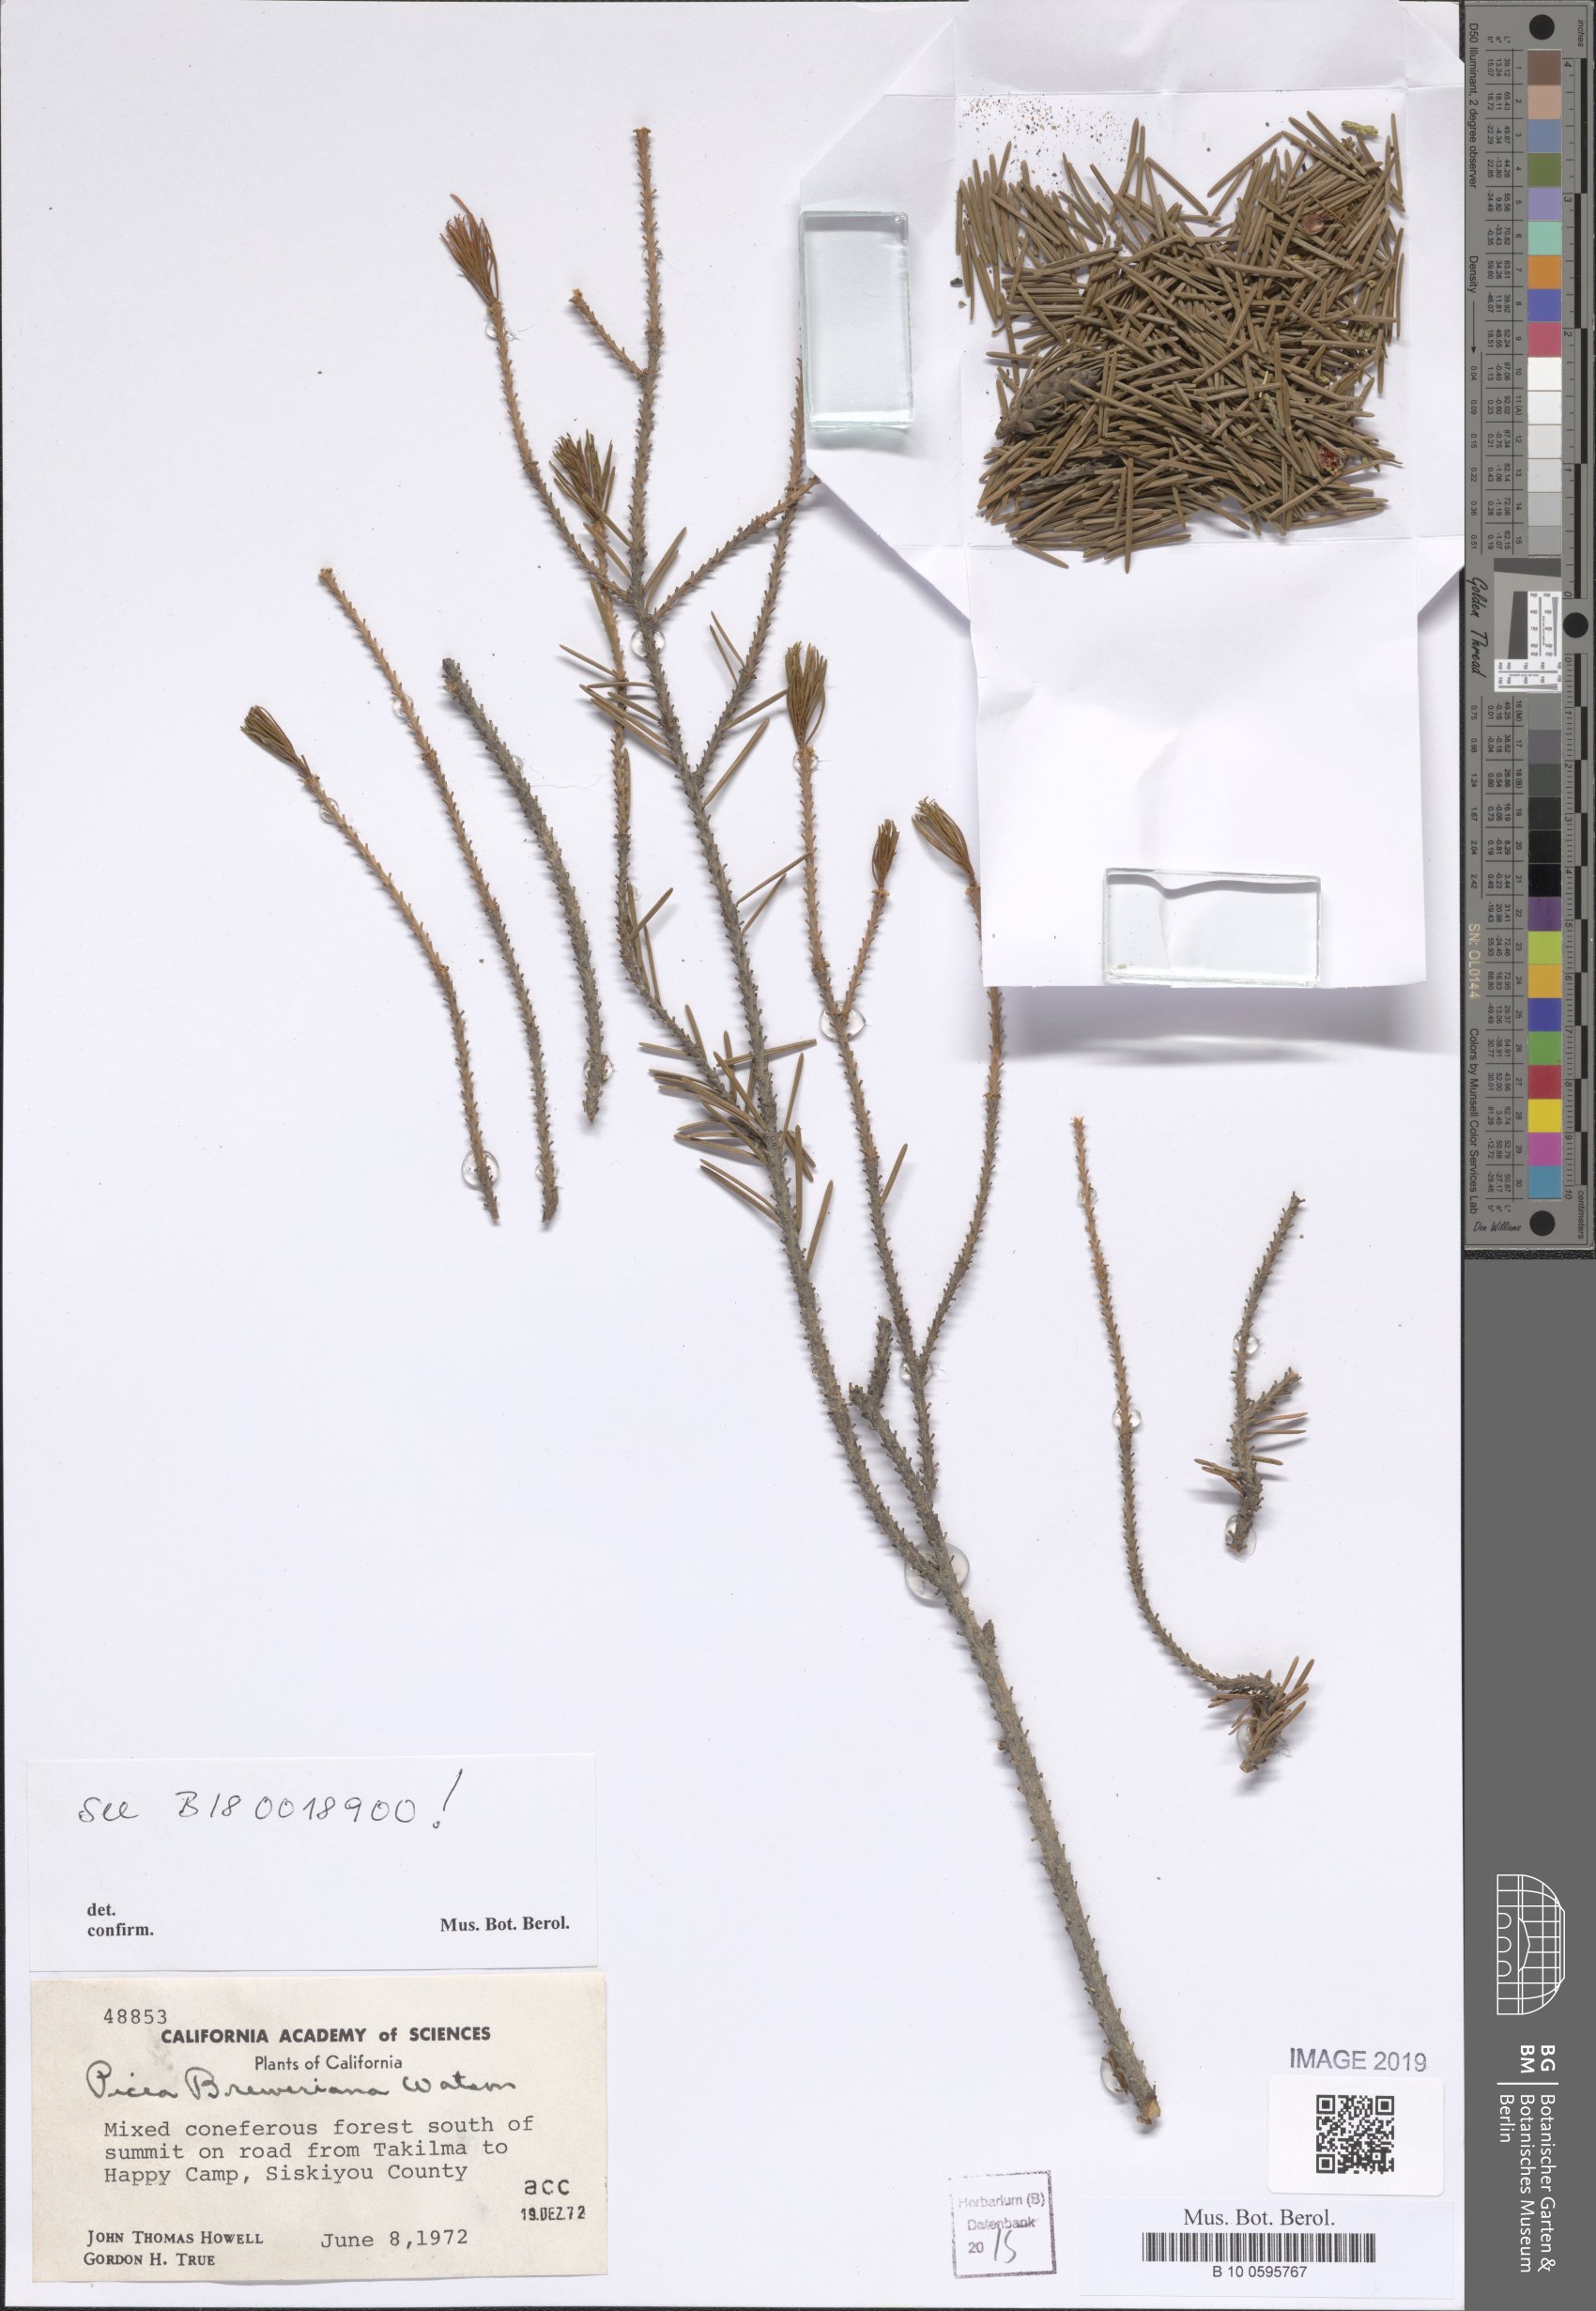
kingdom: Plantae
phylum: Tracheophyta
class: Pinopsida
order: Pinales
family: Pinaceae
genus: Picea
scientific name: Picea breweriana
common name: Brewer's spruce
